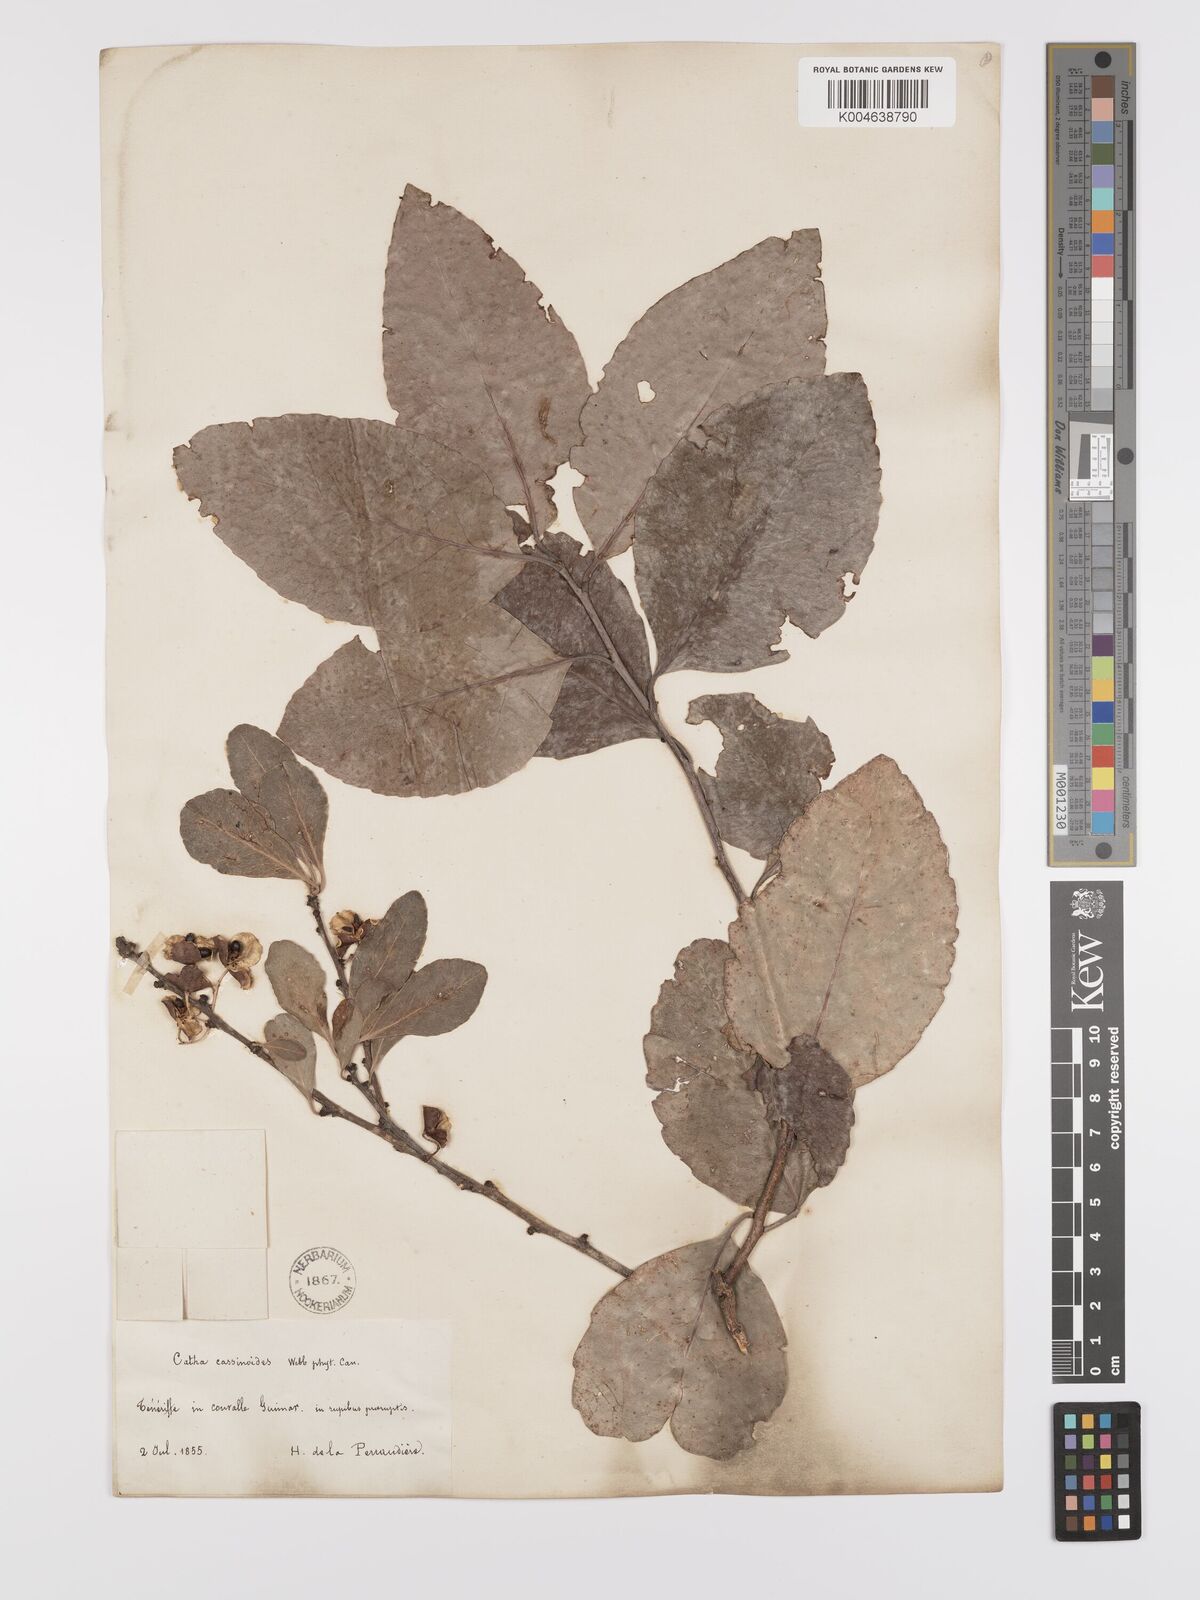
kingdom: Plantae
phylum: Tracheophyta
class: Magnoliopsida
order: Celastrales
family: Celastraceae
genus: Gymnosporia
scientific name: Gymnosporia cassinoides
